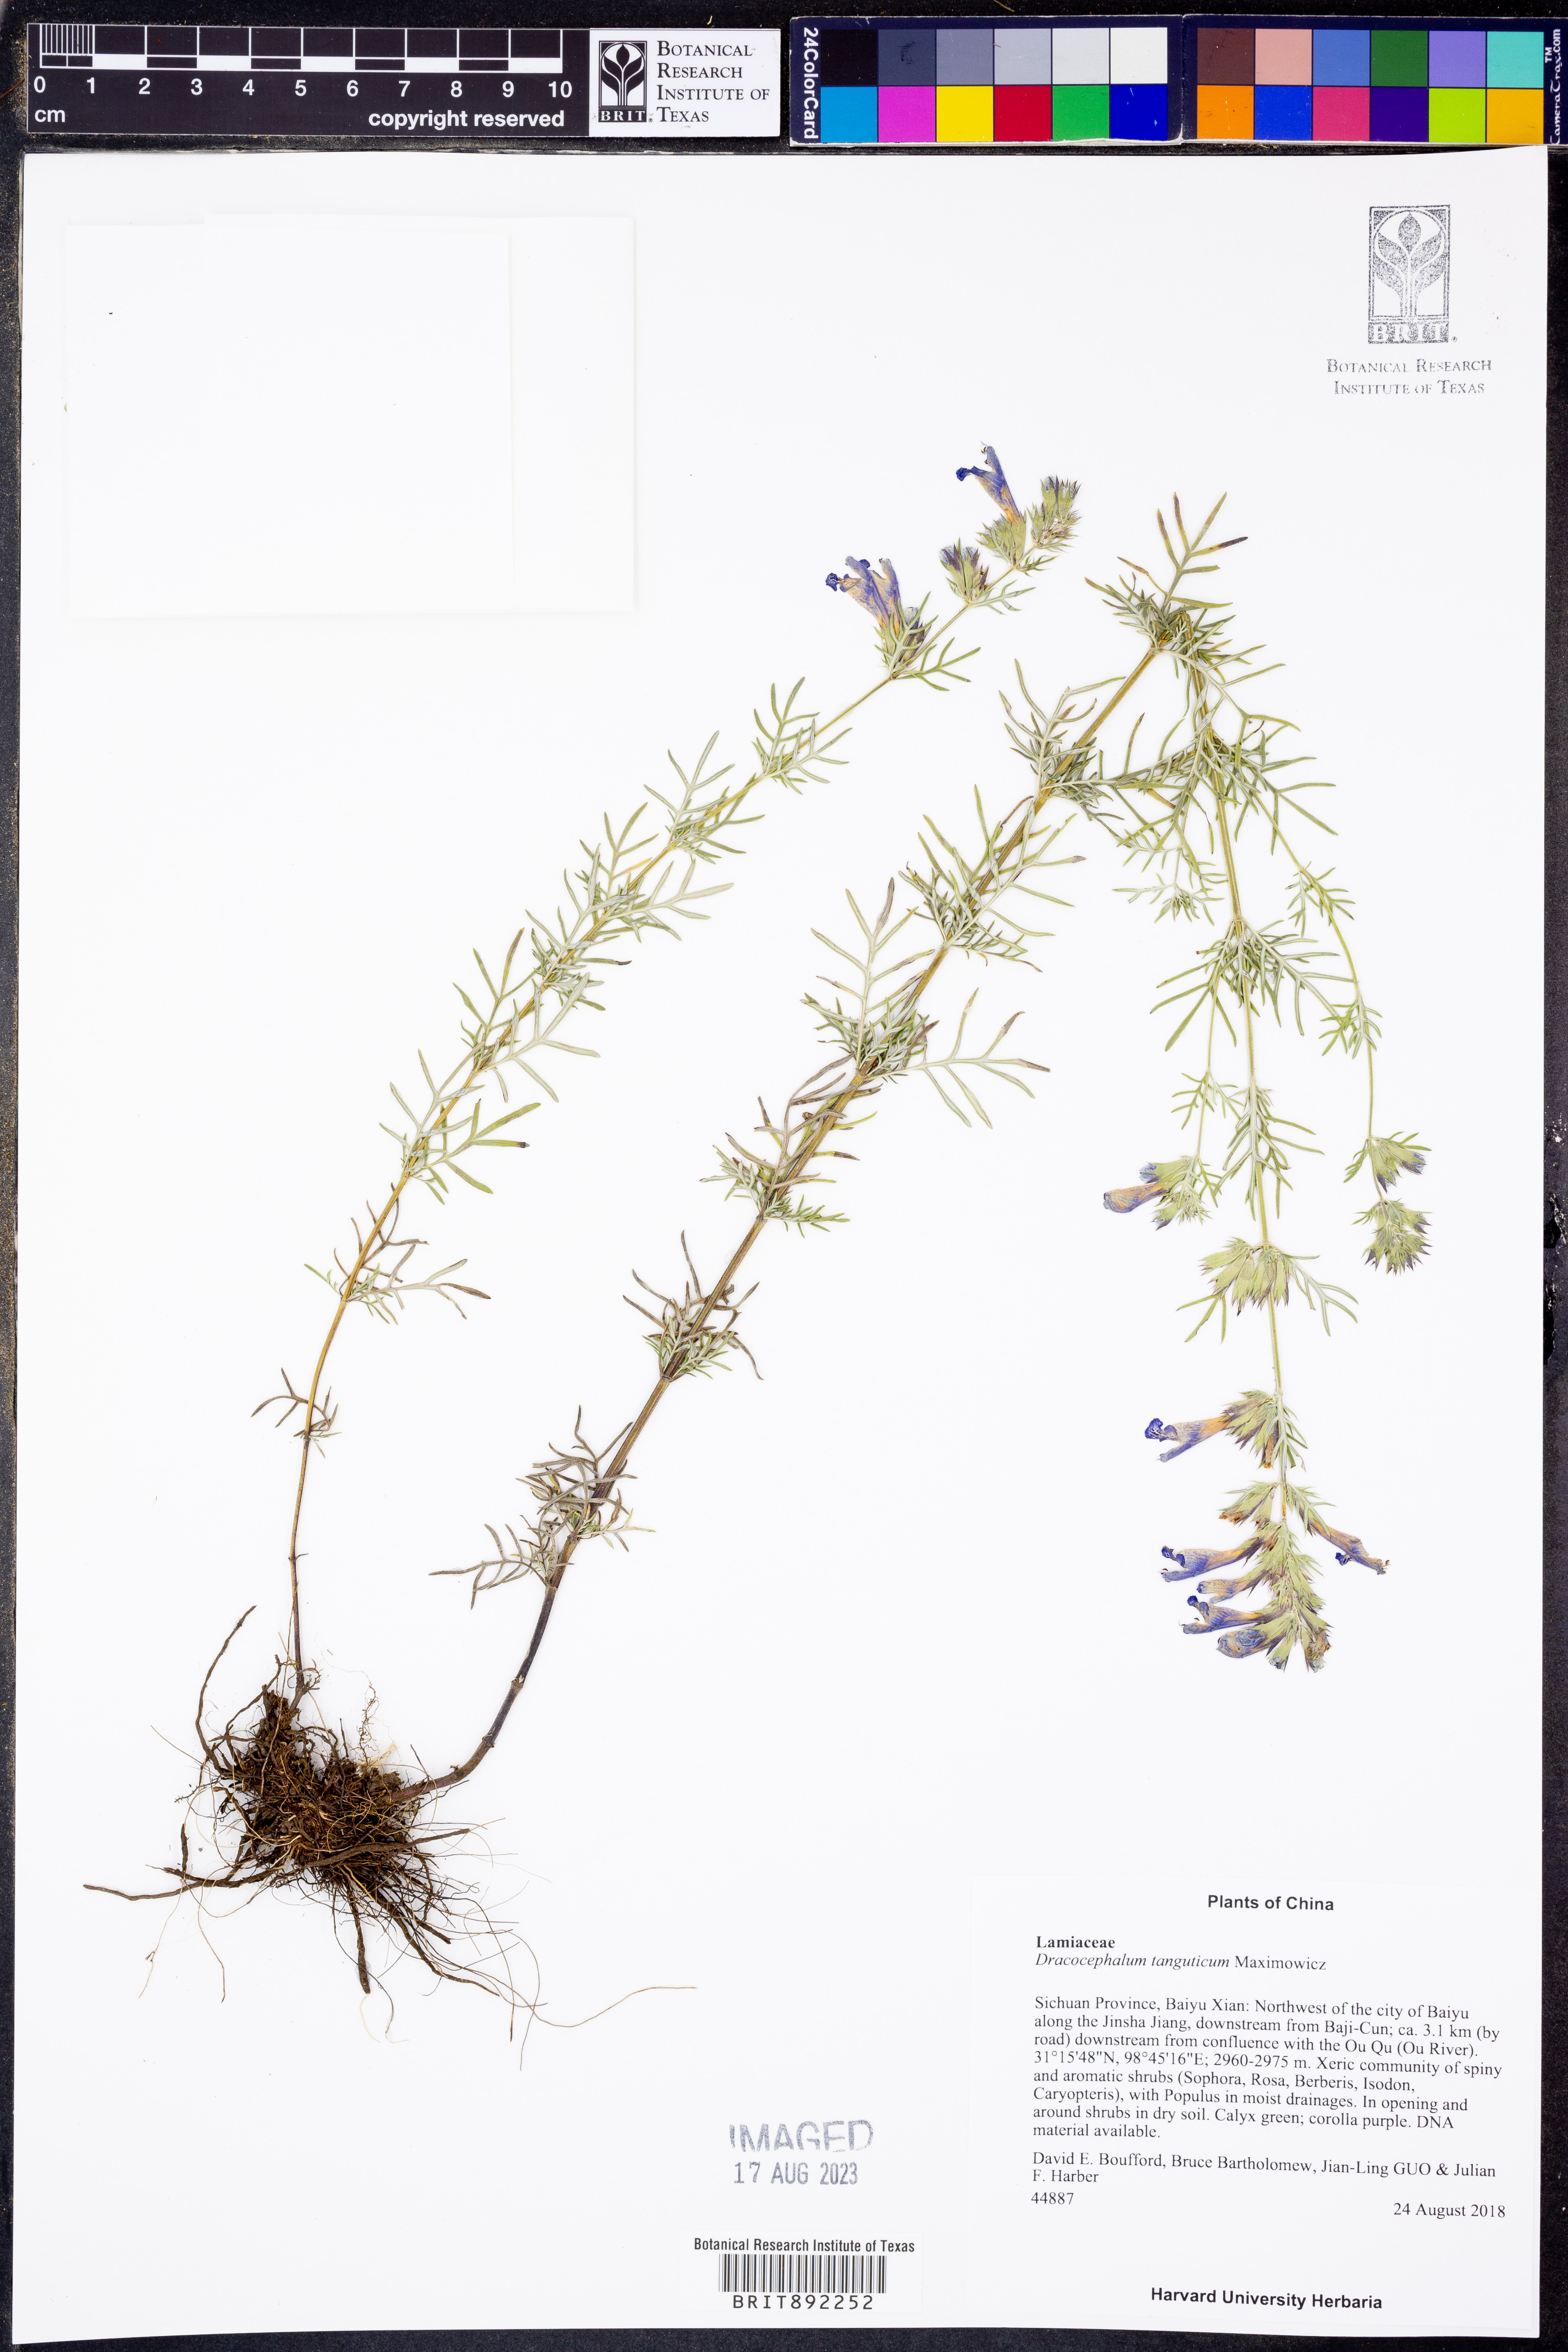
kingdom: Plantae
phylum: Tracheophyta
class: Magnoliopsida
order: Lamiales
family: Lamiaceae
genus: Dracocephalum
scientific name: Dracocephalum tanguticum
